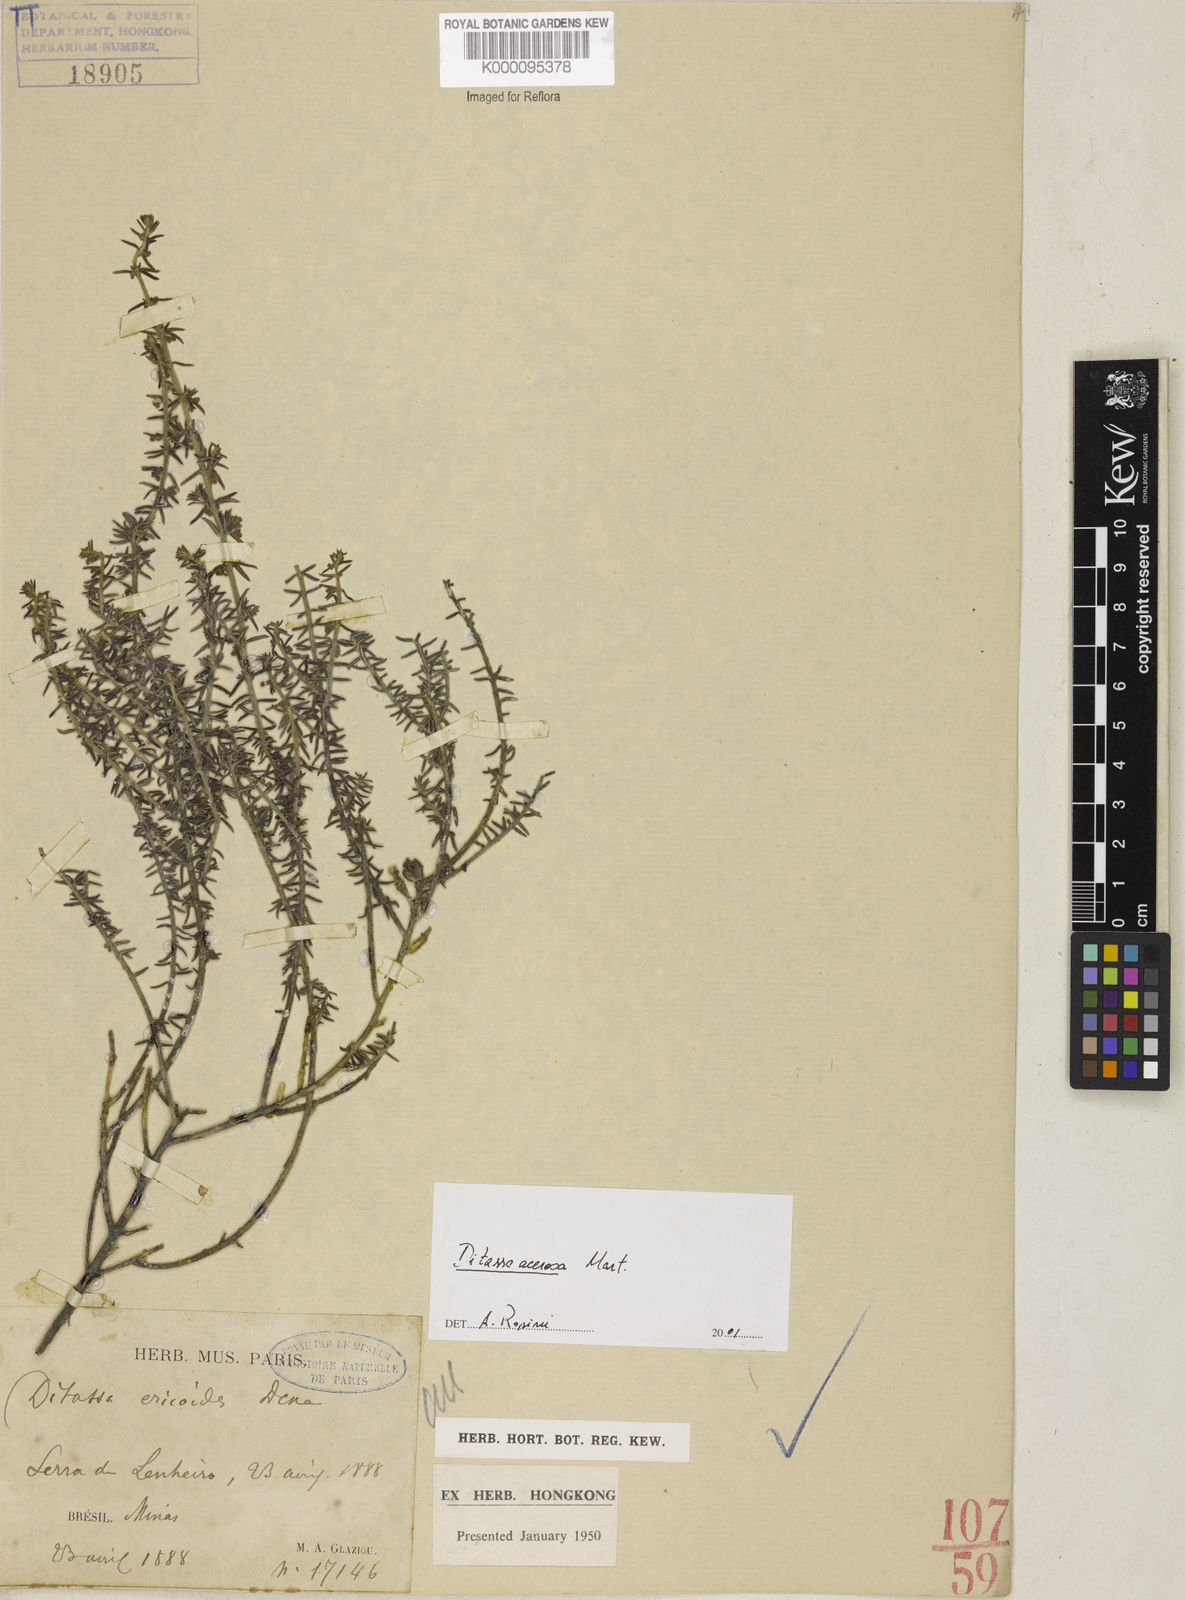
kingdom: Plantae
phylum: Tracheophyta
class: Magnoliopsida
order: Gentianales
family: Apocynaceae
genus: Minaria
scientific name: Minaria acerosa
